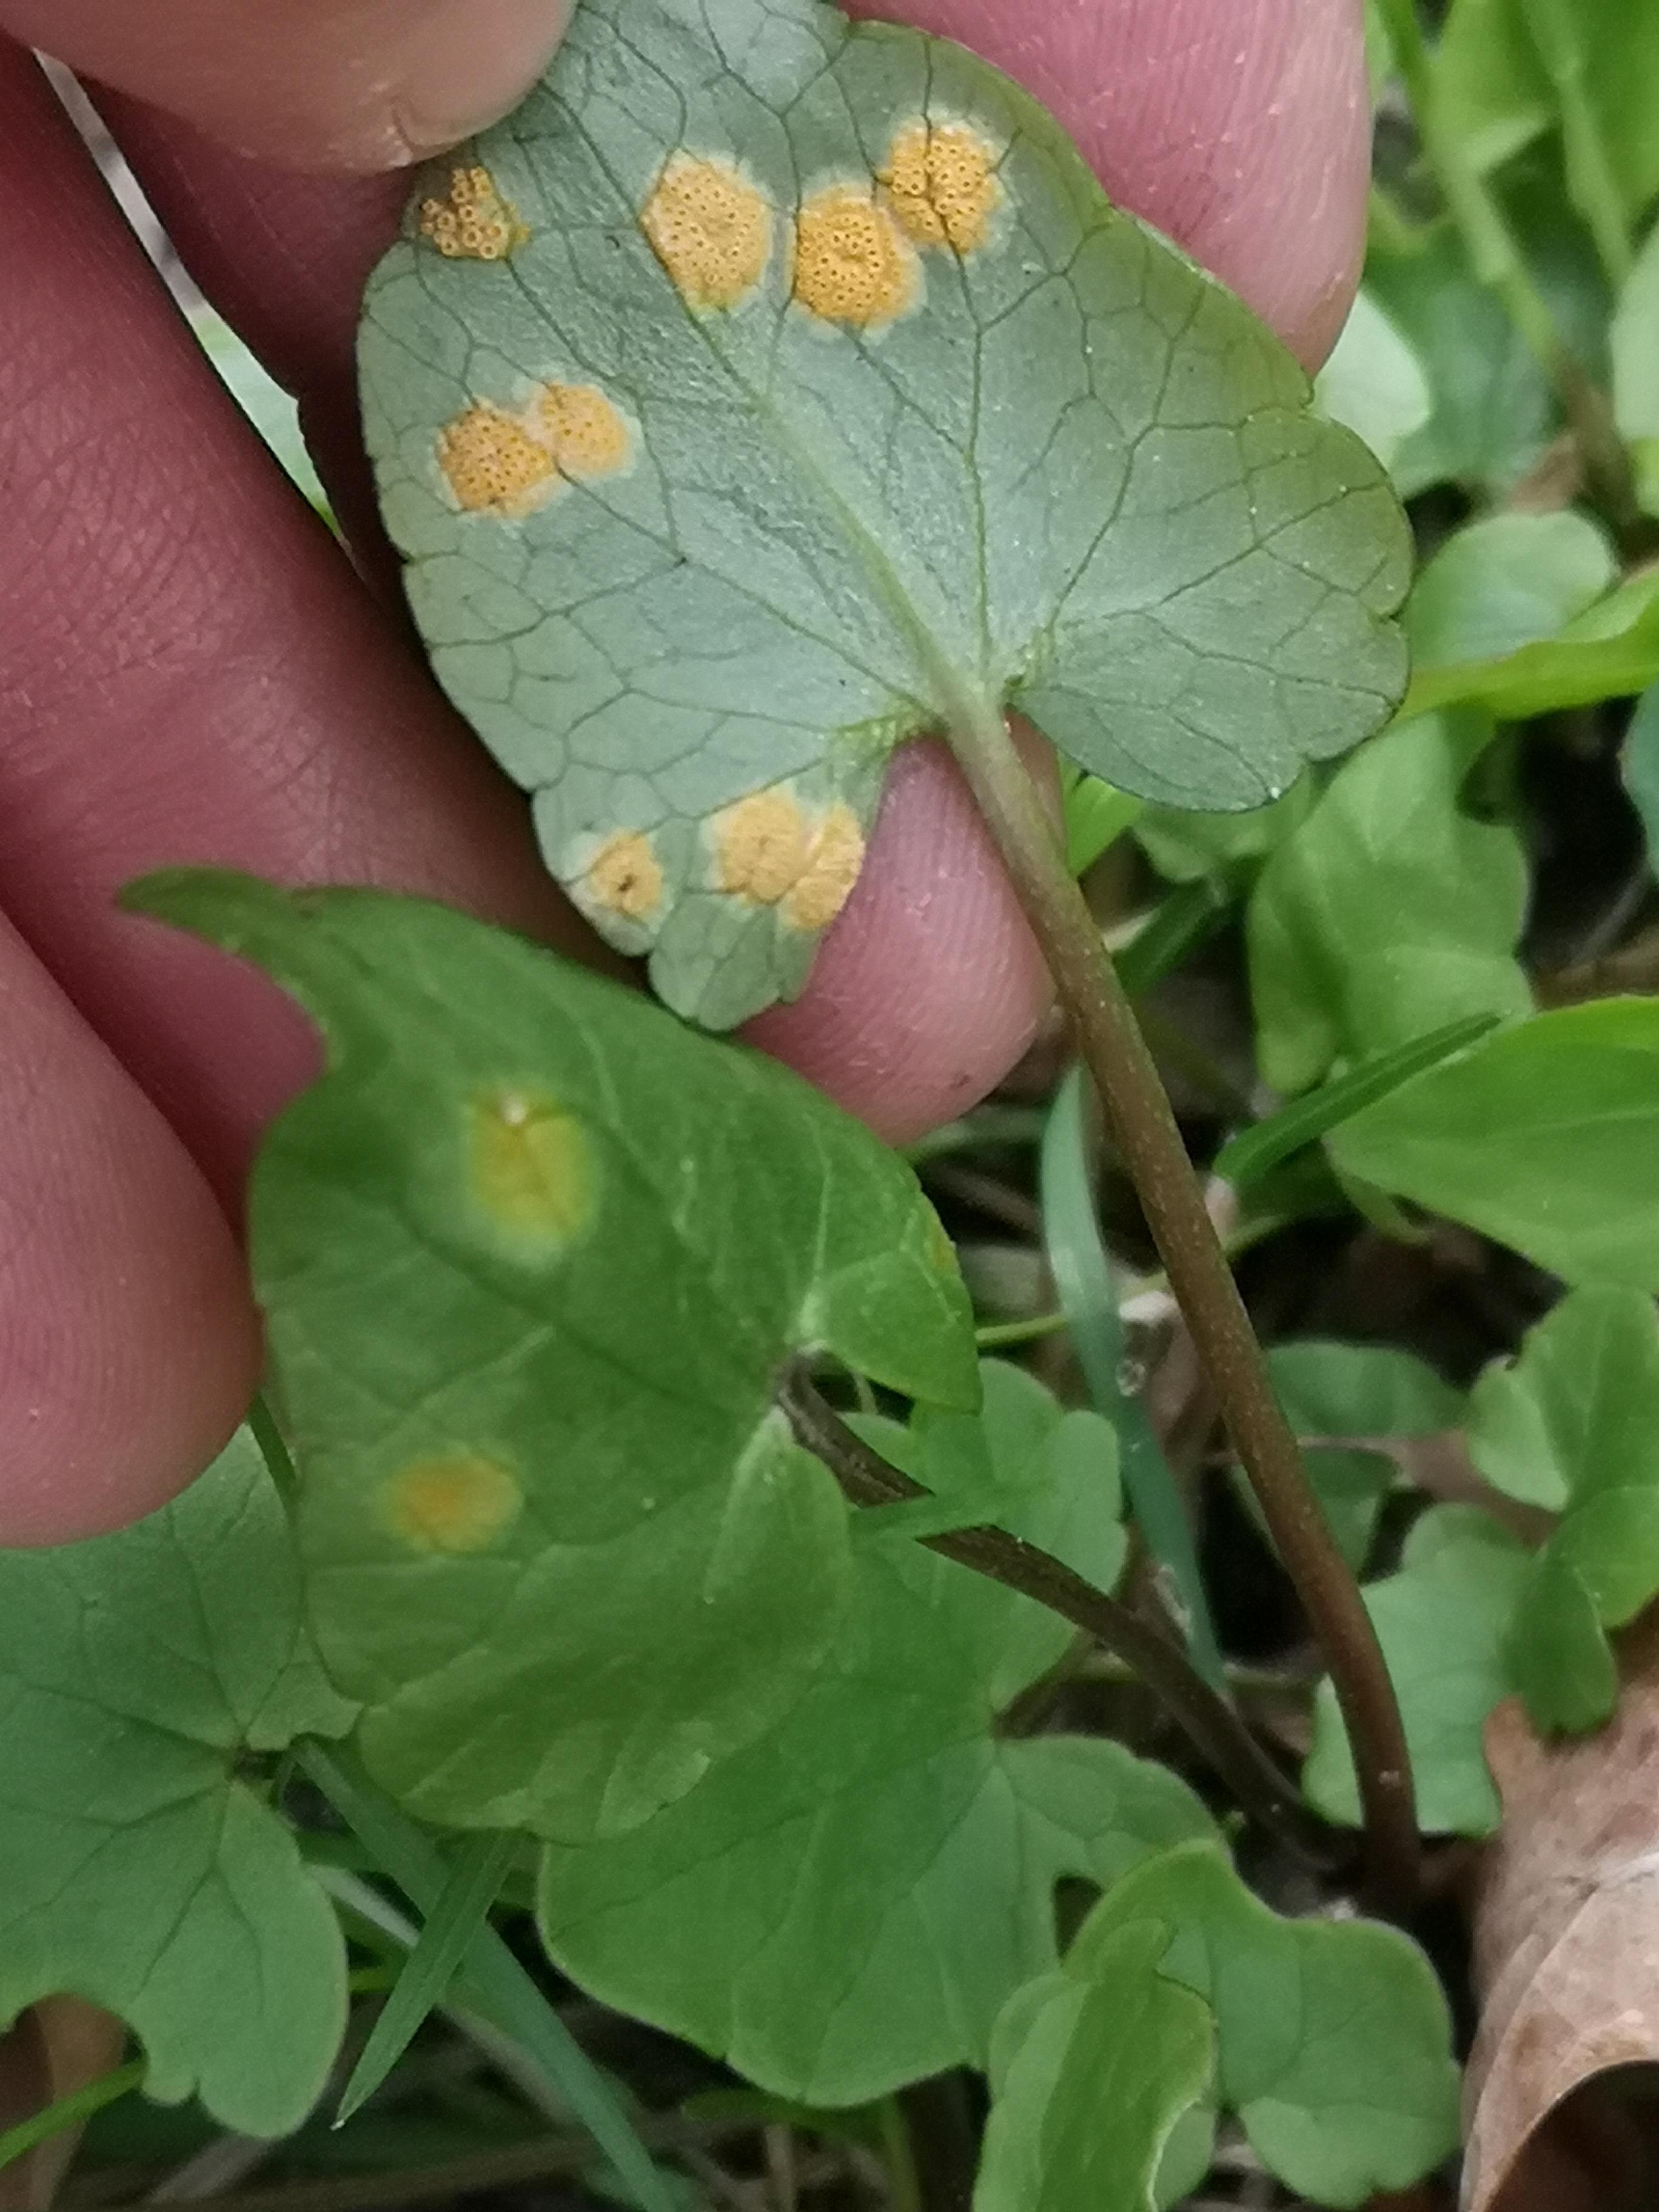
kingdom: Fungi
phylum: Basidiomycota
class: Pucciniomycetes
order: Pucciniales
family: Pucciniaceae
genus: Uromyces
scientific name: Uromyces dactylidis
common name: ranunkel-encellerust
